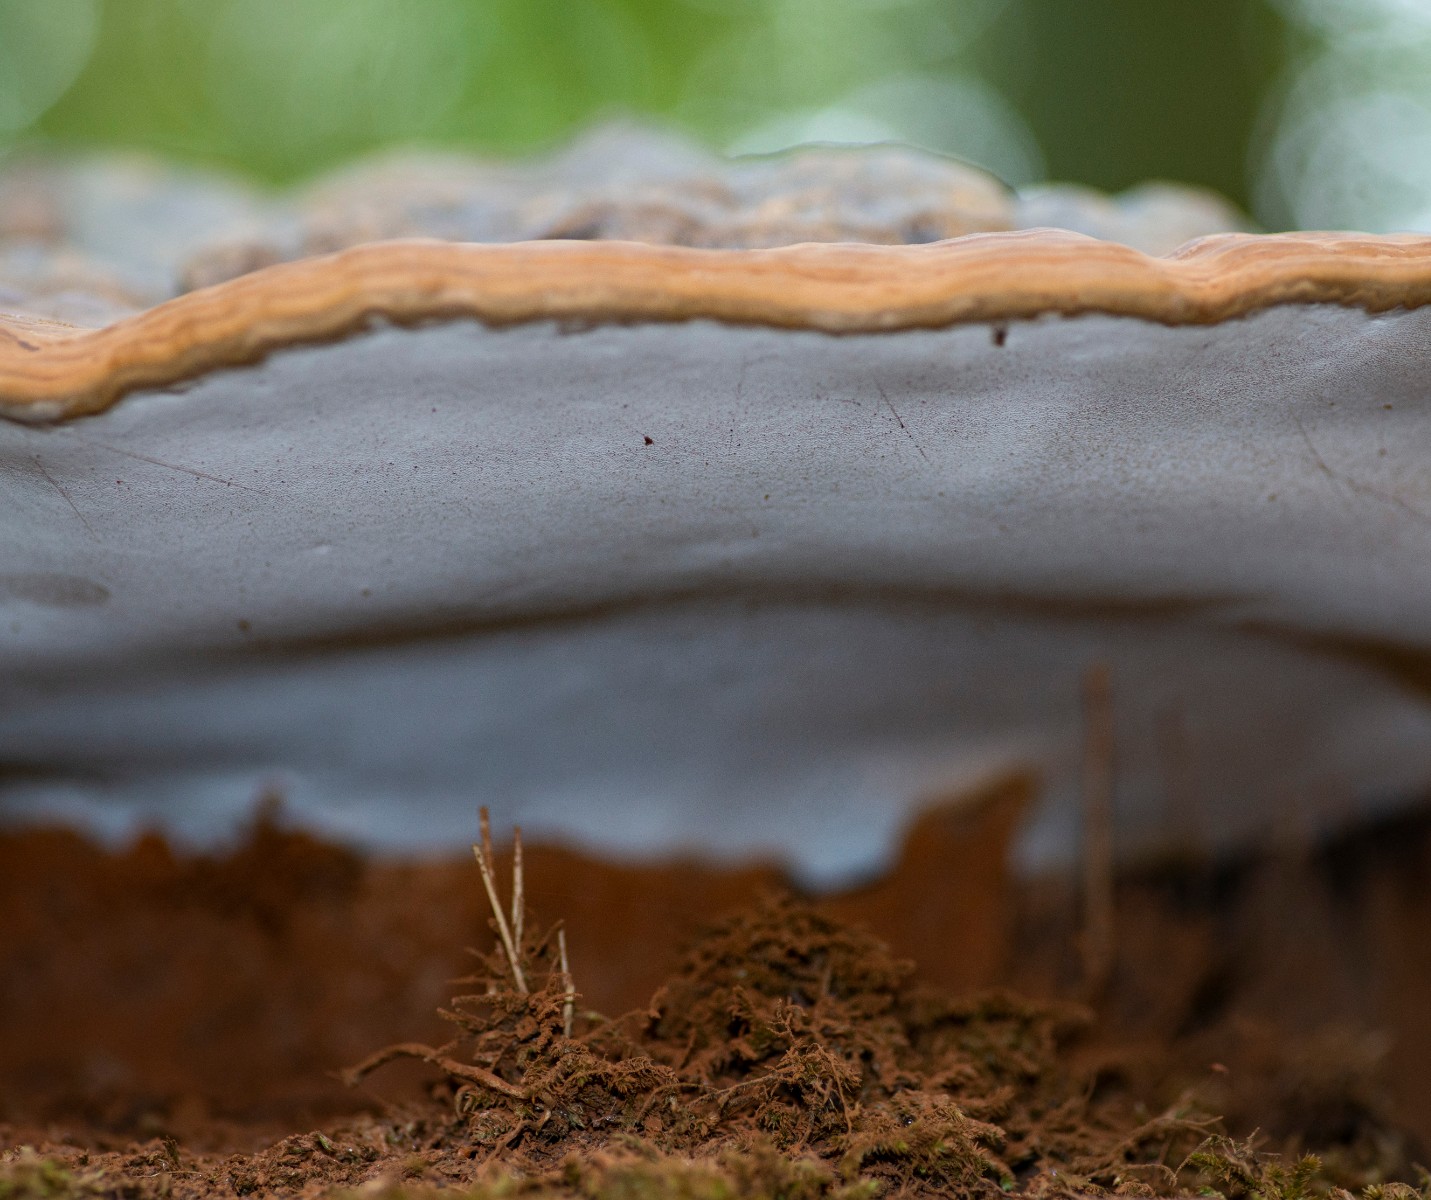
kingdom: Fungi
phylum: Basidiomycota
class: Agaricomycetes
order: Polyporales
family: Polyporaceae
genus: Ganoderma
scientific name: Ganoderma pfeifferi
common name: kobberrød lakporesvamp
